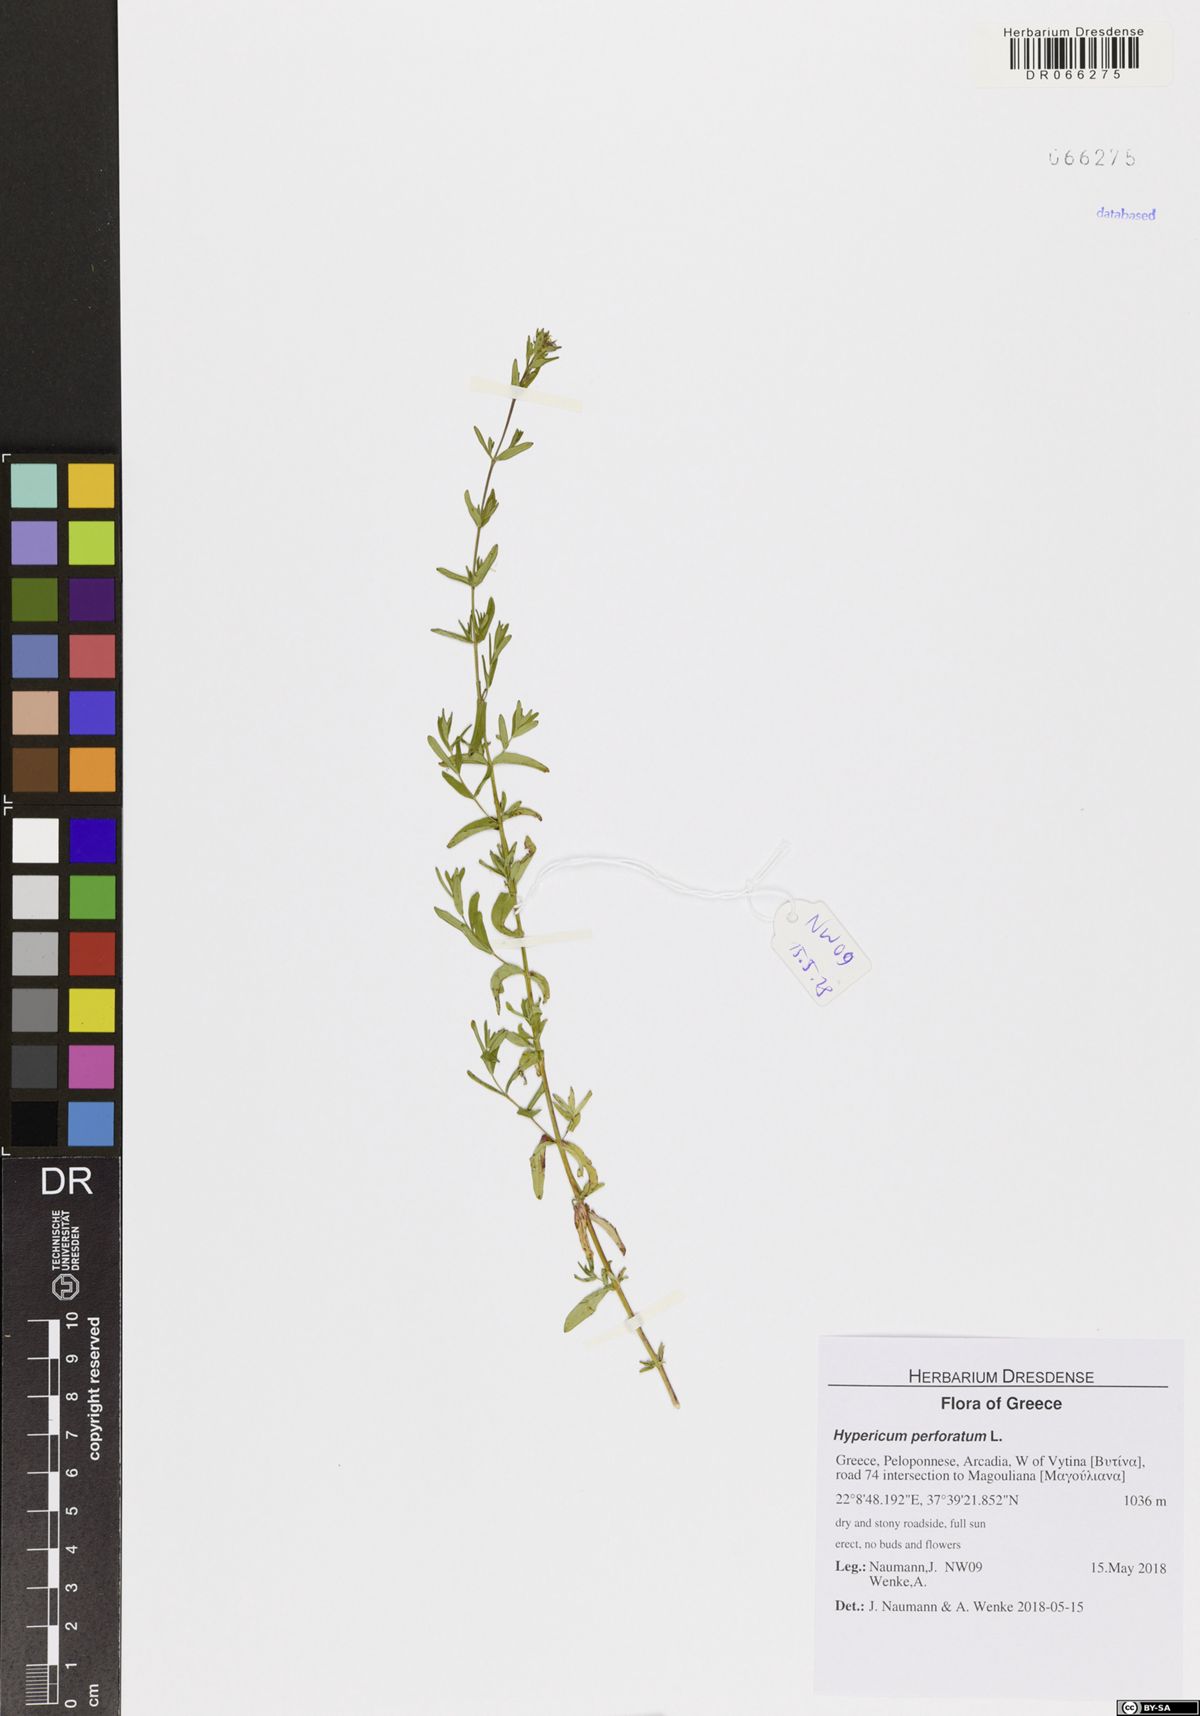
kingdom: Plantae
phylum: Tracheophyta
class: Magnoliopsida
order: Malpighiales
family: Hypericaceae
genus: Hypericum
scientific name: Hypericum perforatum
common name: Common st. johnswort
